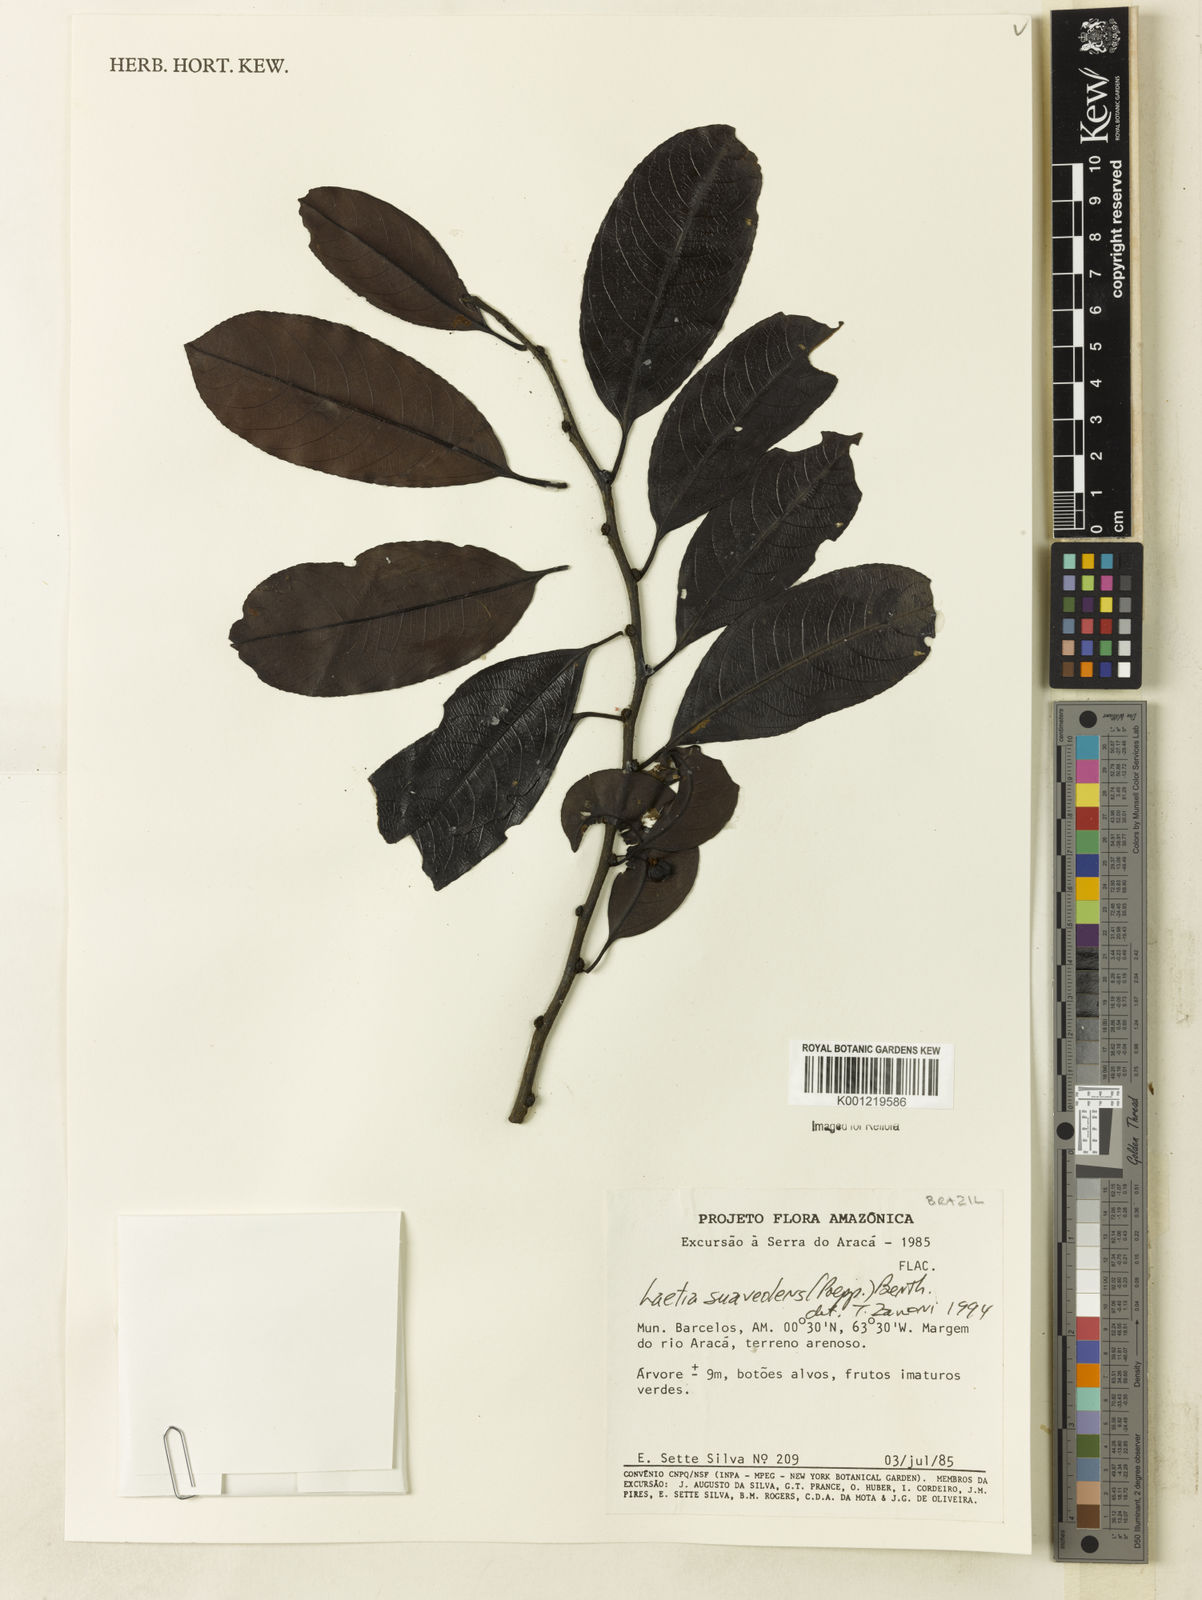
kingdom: Plantae
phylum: Tracheophyta
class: Magnoliopsida
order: Malpighiales
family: Salicaceae
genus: Casearia
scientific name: Casearia suaveolens
